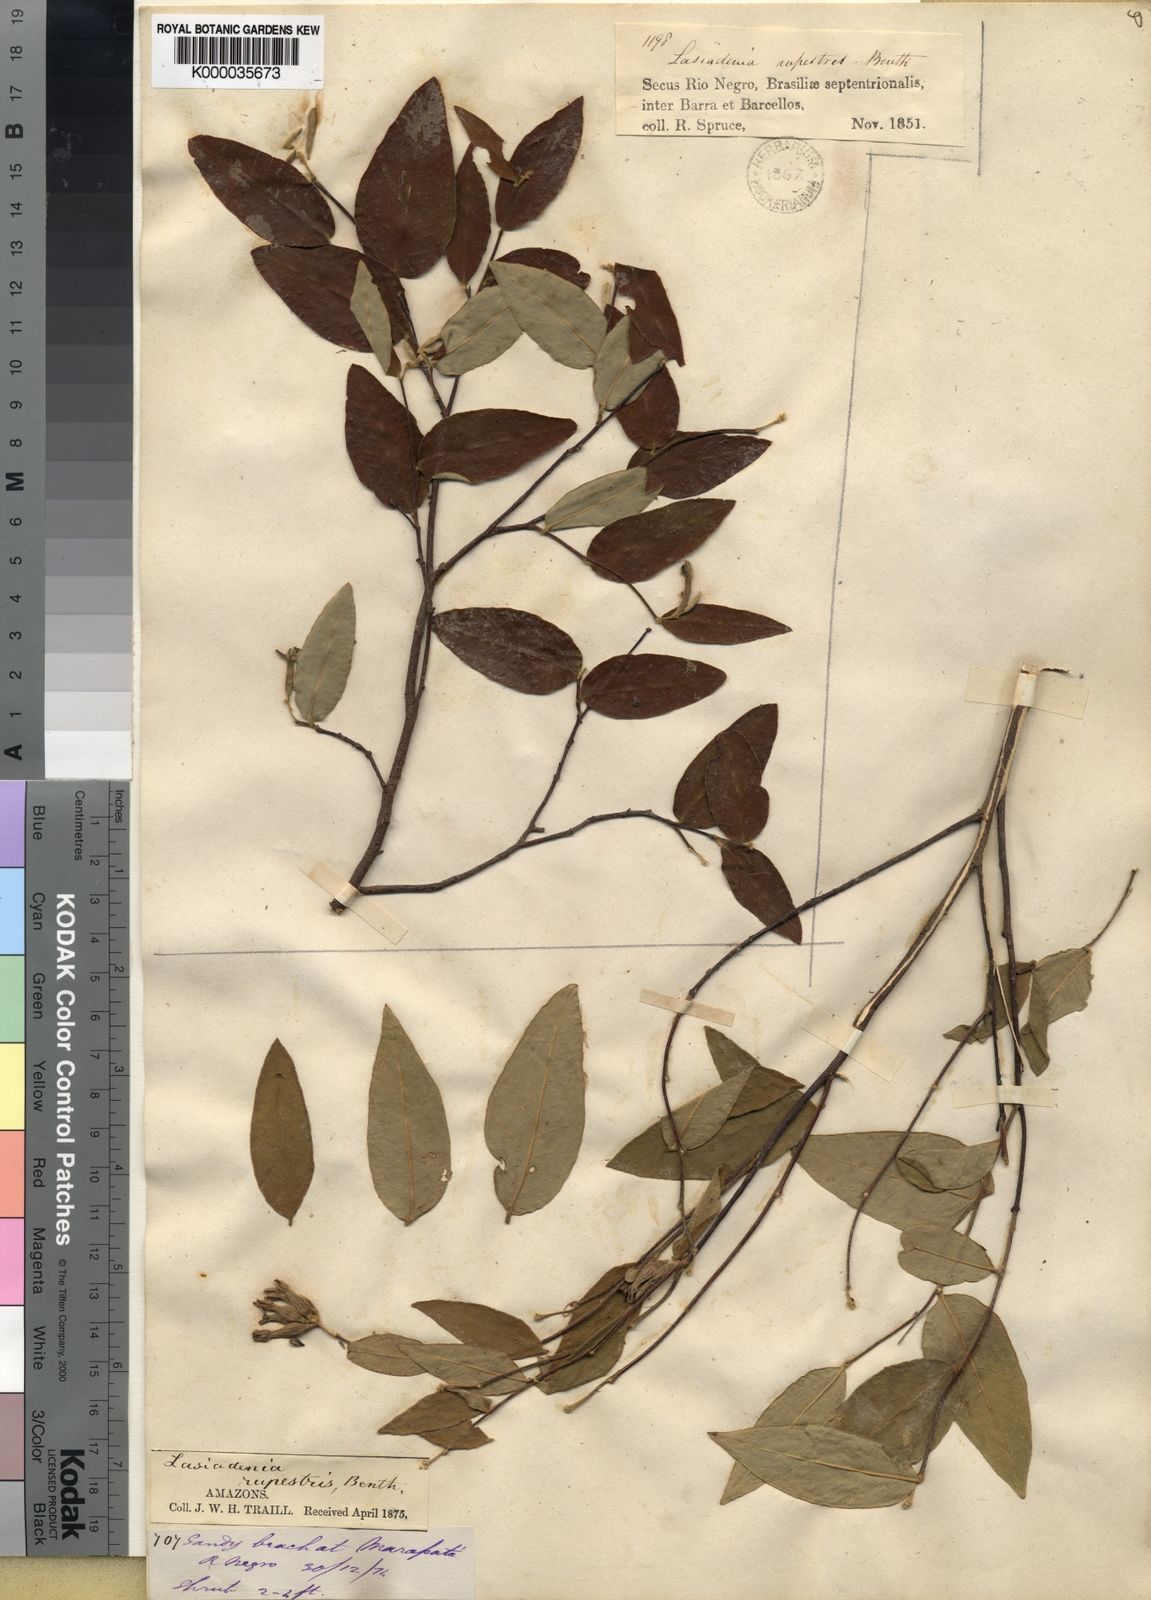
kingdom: Plantae
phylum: Tracheophyta
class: Magnoliopsida
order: Malvales
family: Thymelaeaceae
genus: Lasiadenia
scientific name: Lasiadenia rupestris
